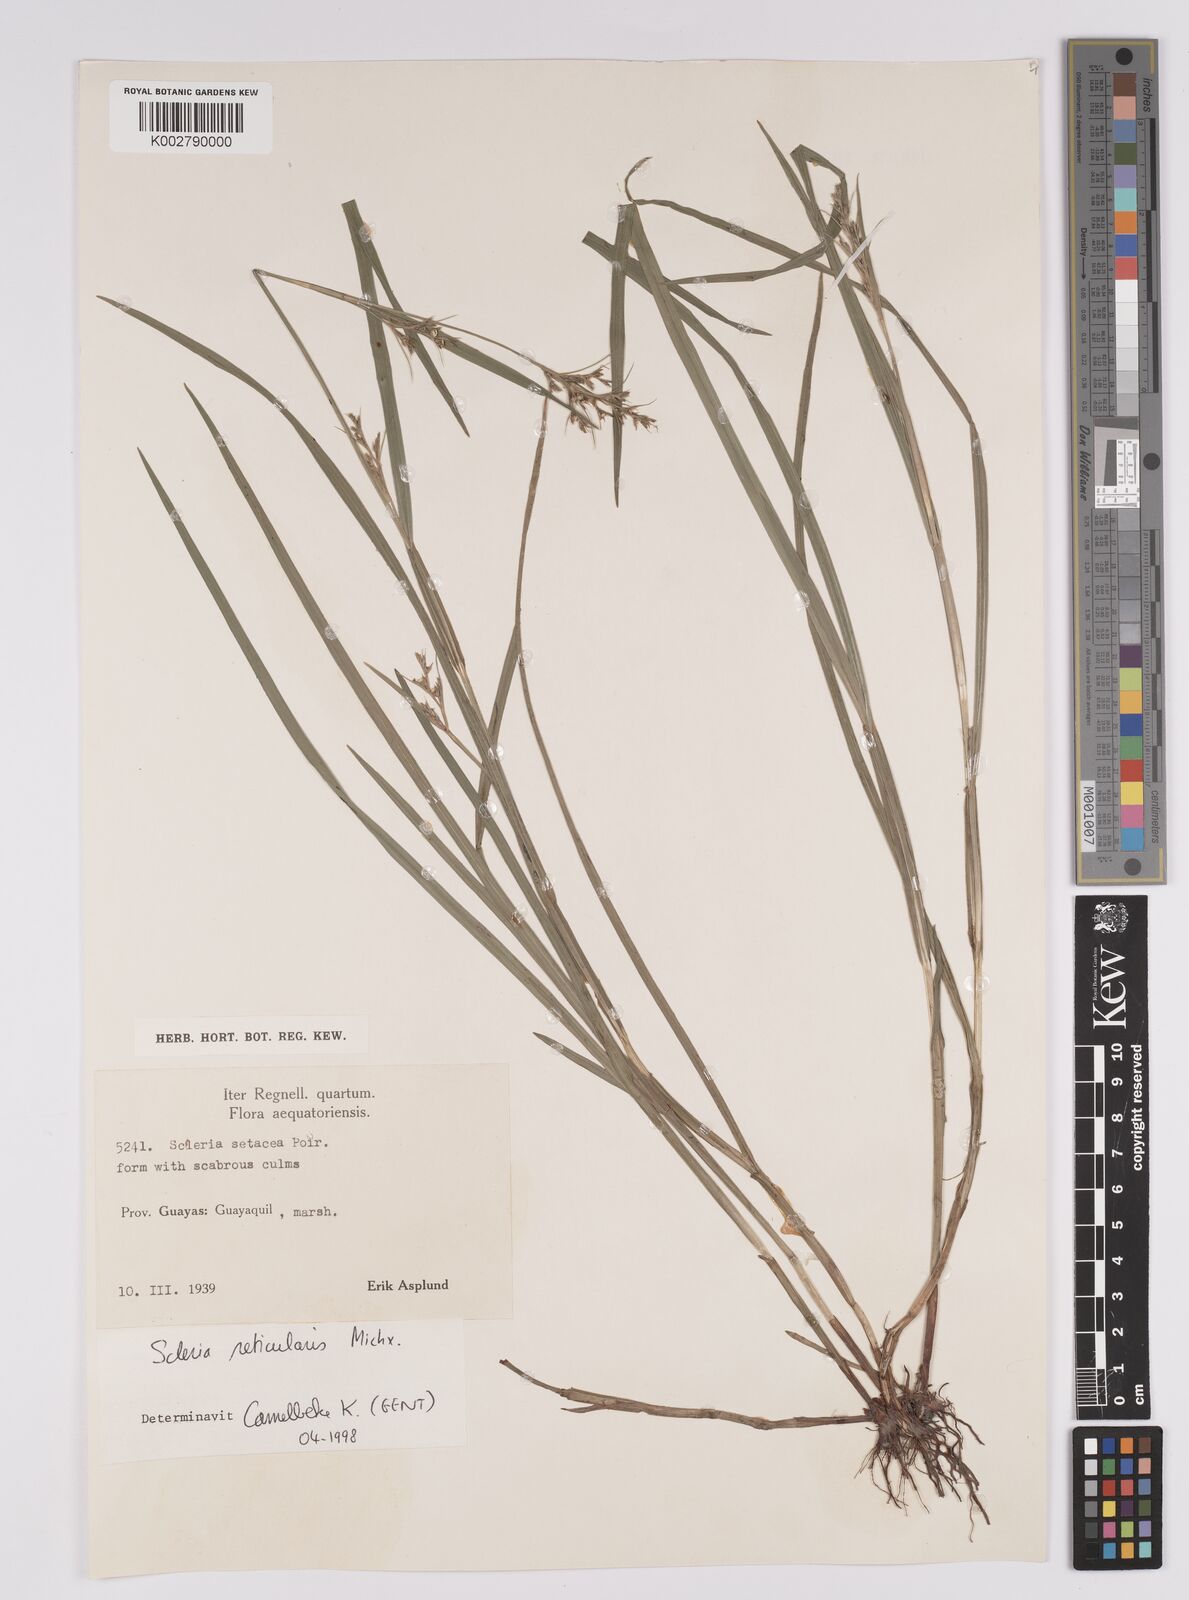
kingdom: Plantae
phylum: Tracheophyta
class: Liliopsida
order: Poales
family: Cyperaceae
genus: Rhynchospora
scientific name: Rhynchospora tenerrima
